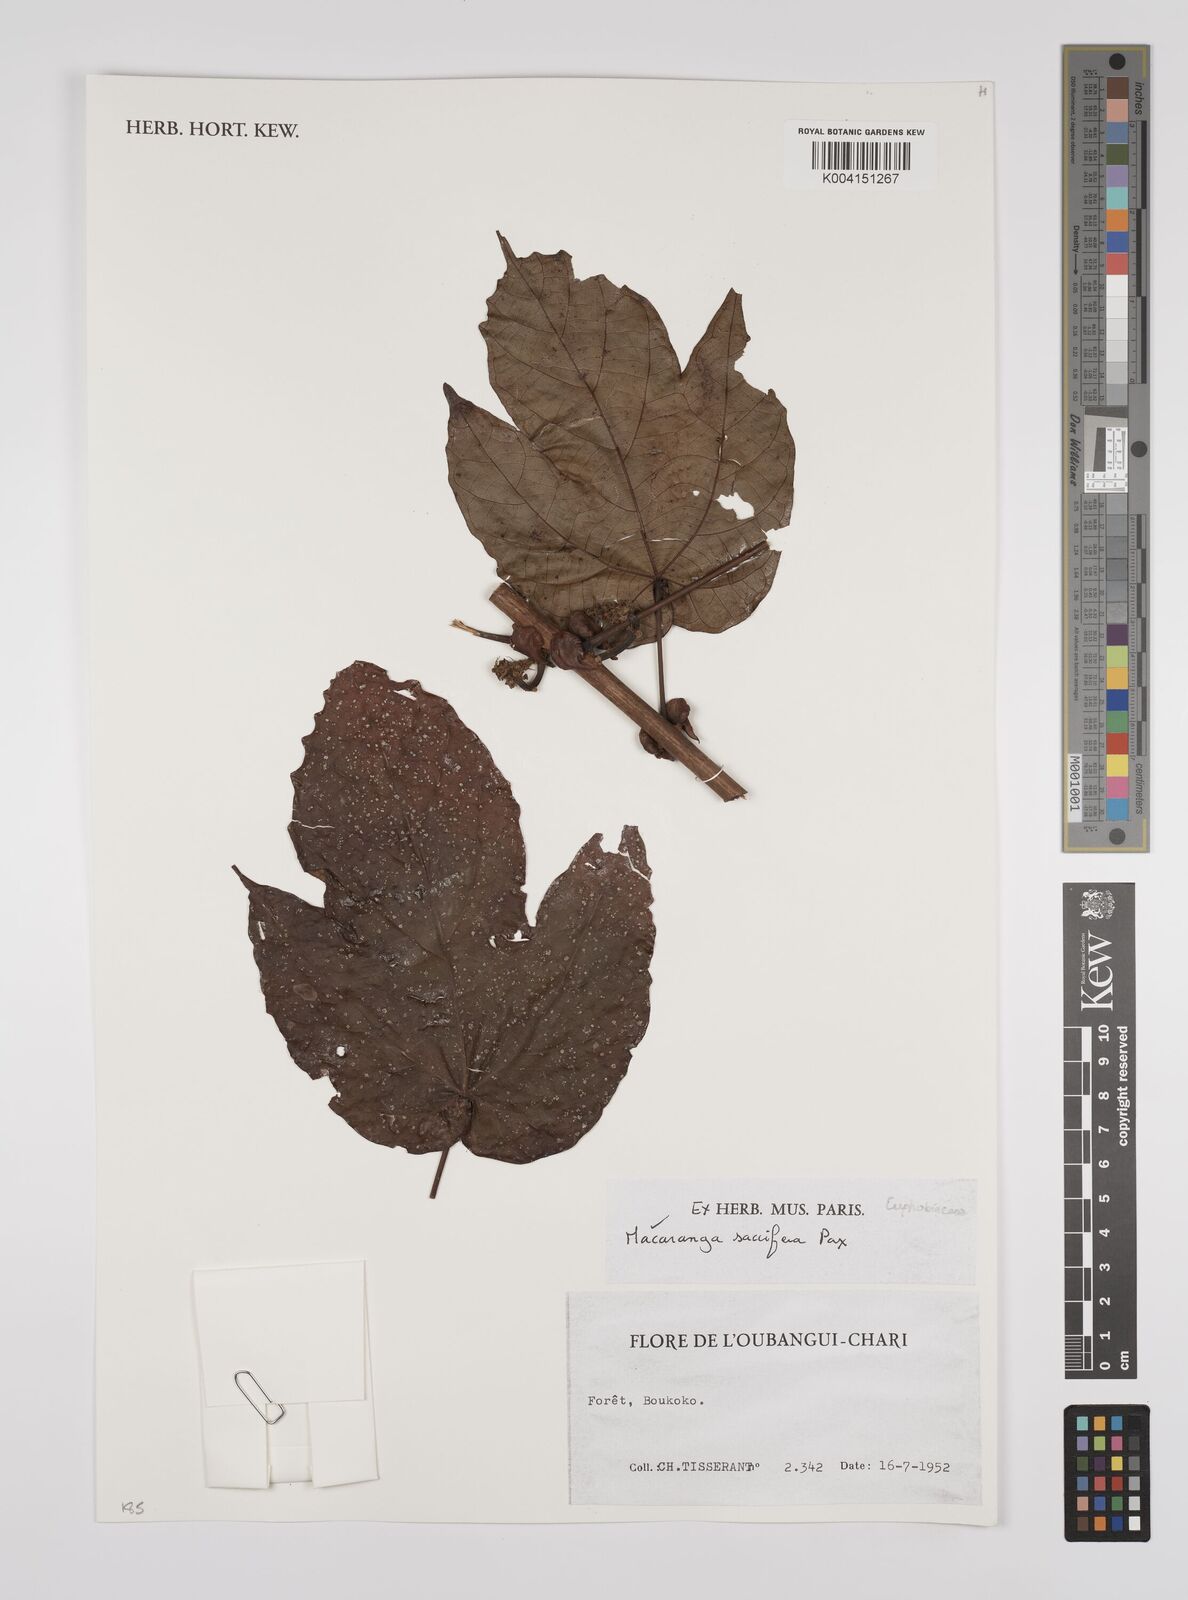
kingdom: Plantae
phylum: Tracheophyta
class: Magnoliopsida
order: Malpighiales
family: Euphorbiaceae
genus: Macaranga
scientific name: Macaranga saccifera
